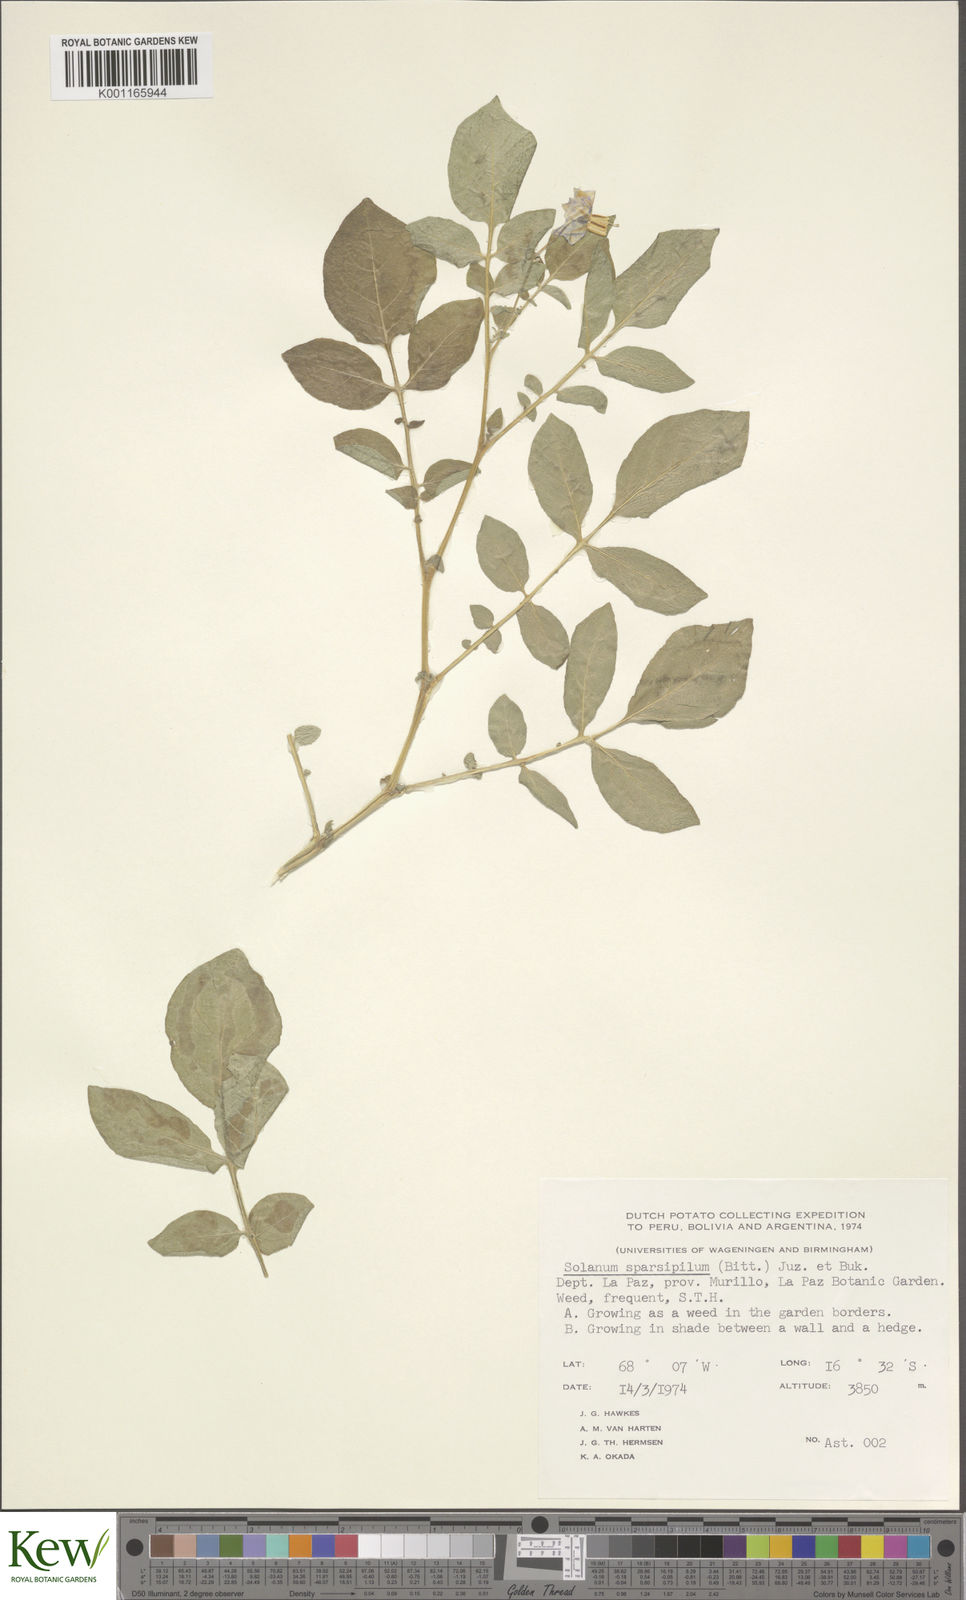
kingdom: Plantae
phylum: Tracheophyta
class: Magnoliopsida
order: Solanales
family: Solanaceae
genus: Solanum
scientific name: Solanum brevicaule
